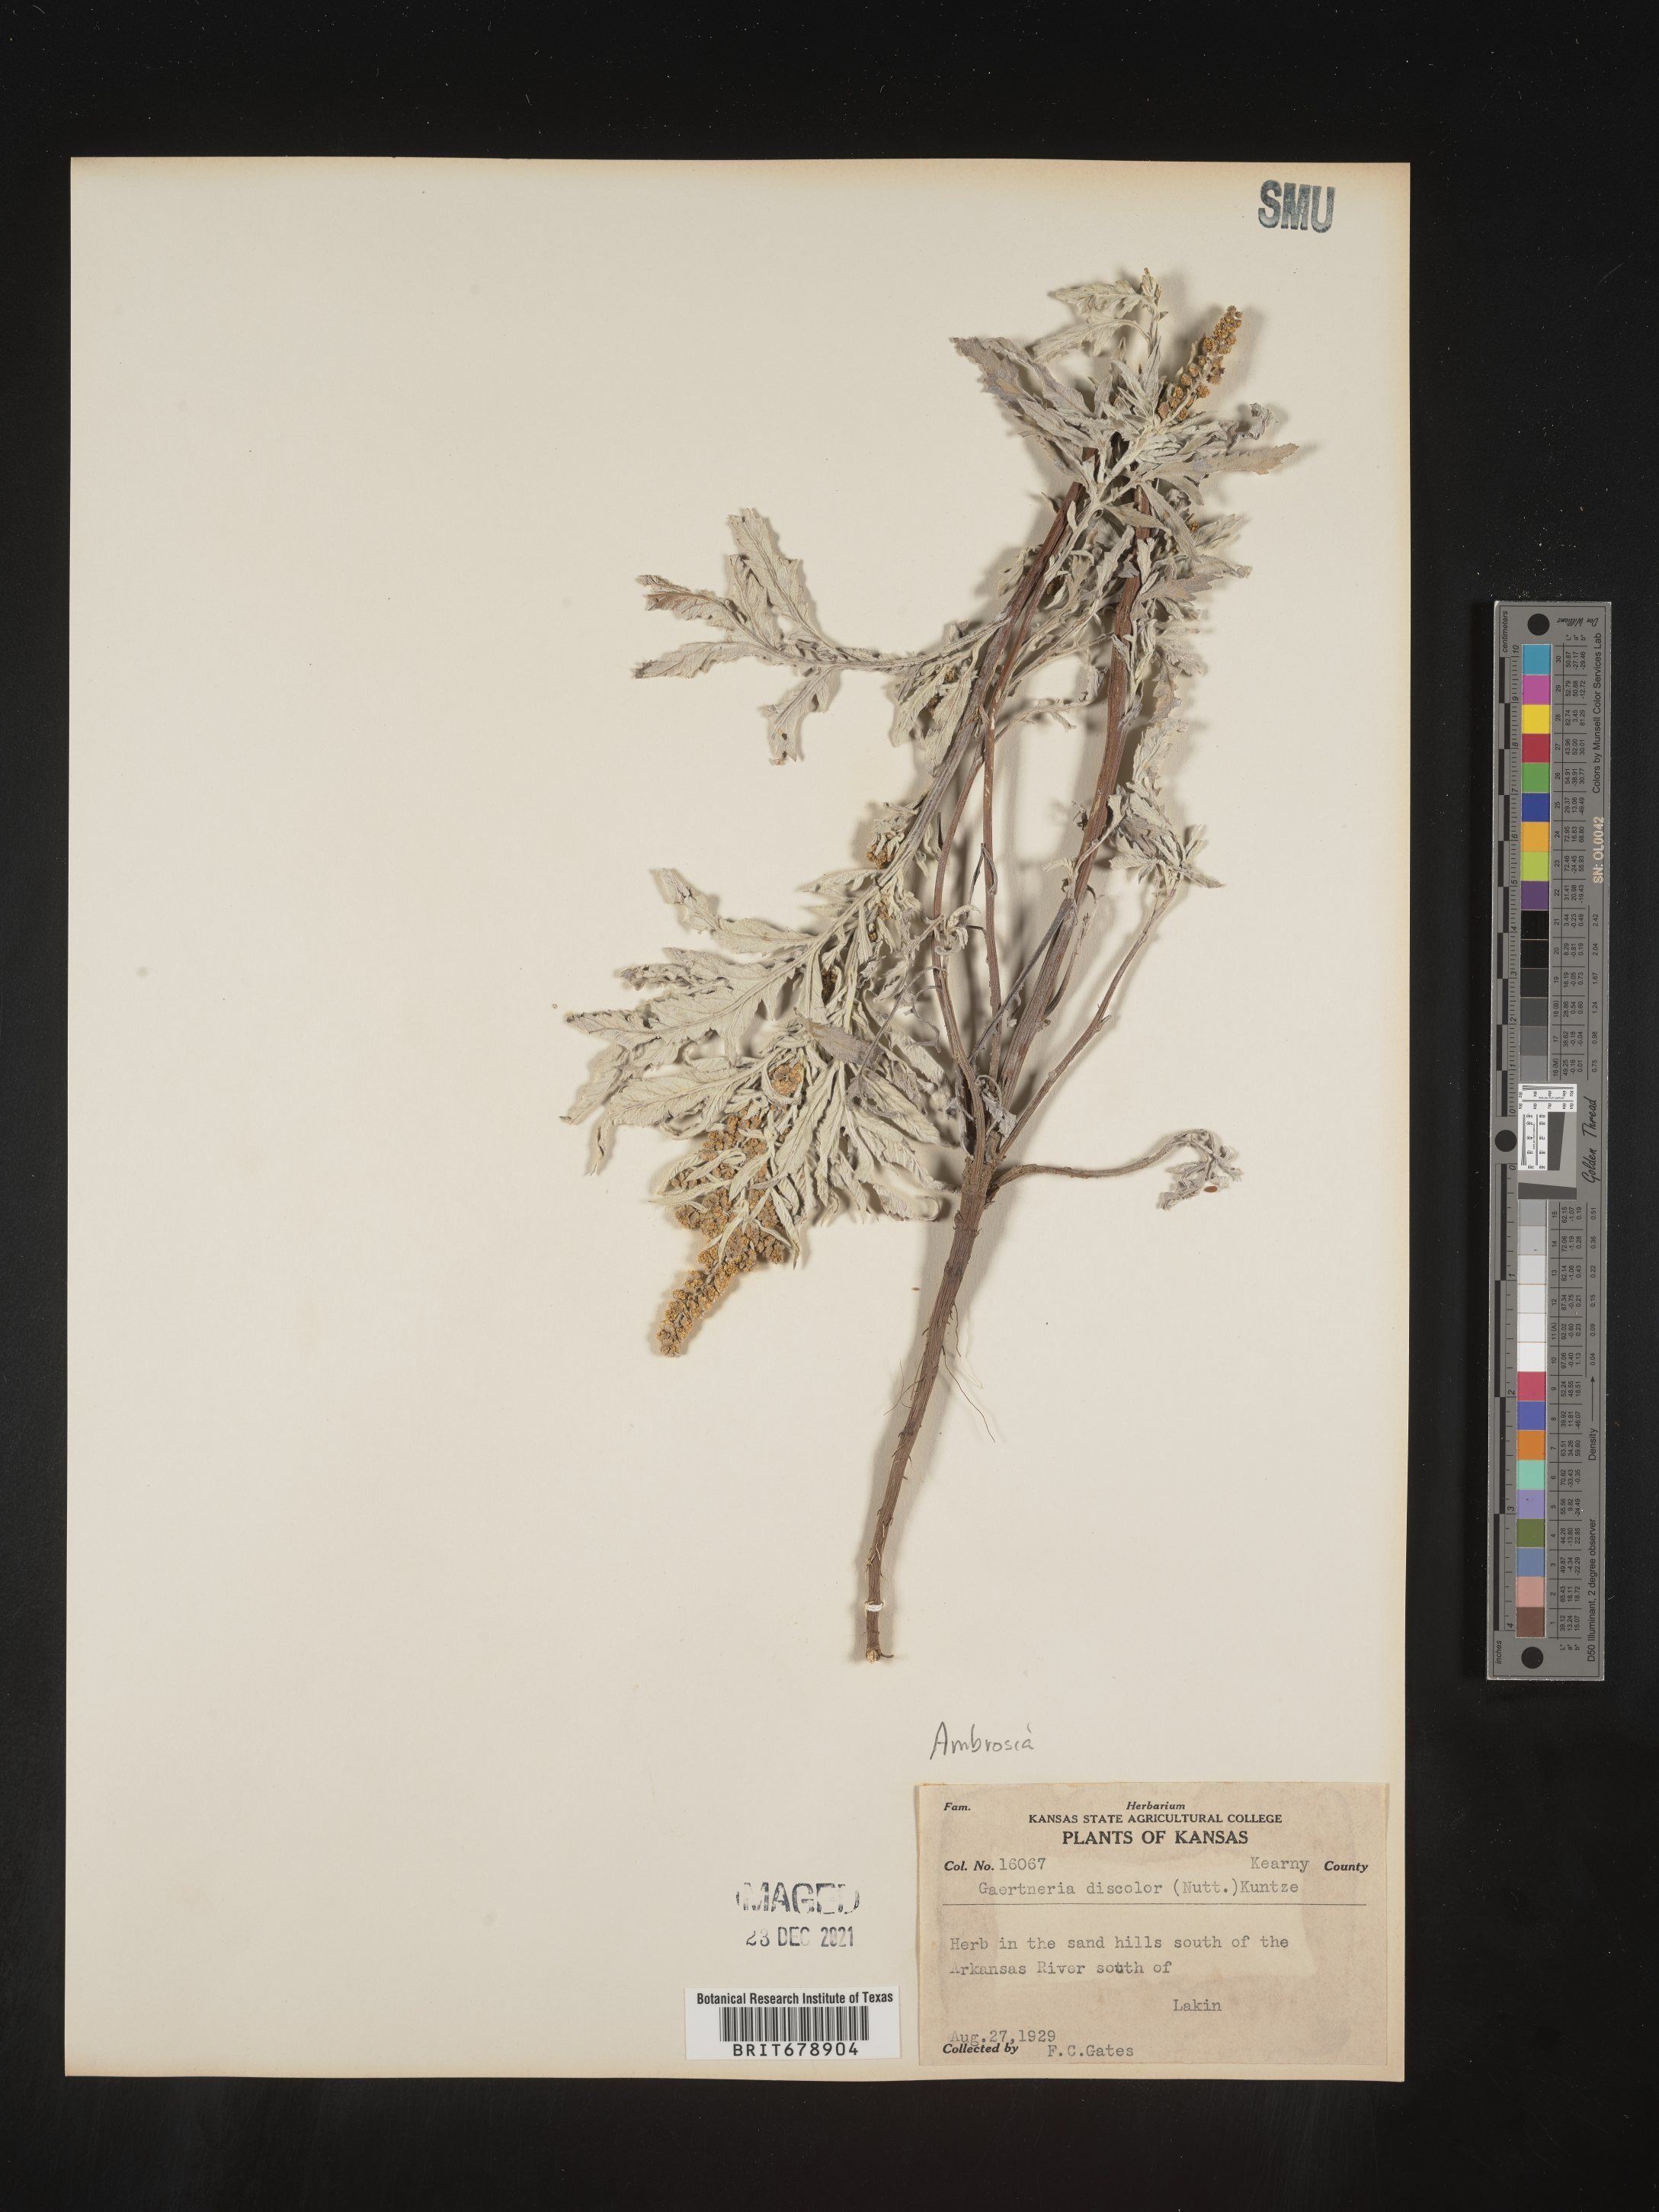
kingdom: Plantae
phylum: Tracheophyta
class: Magnoliopsida
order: Asterales
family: Asteraceae
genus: Ambrosia
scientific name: Ambrosia grayi
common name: Bur ragweed
